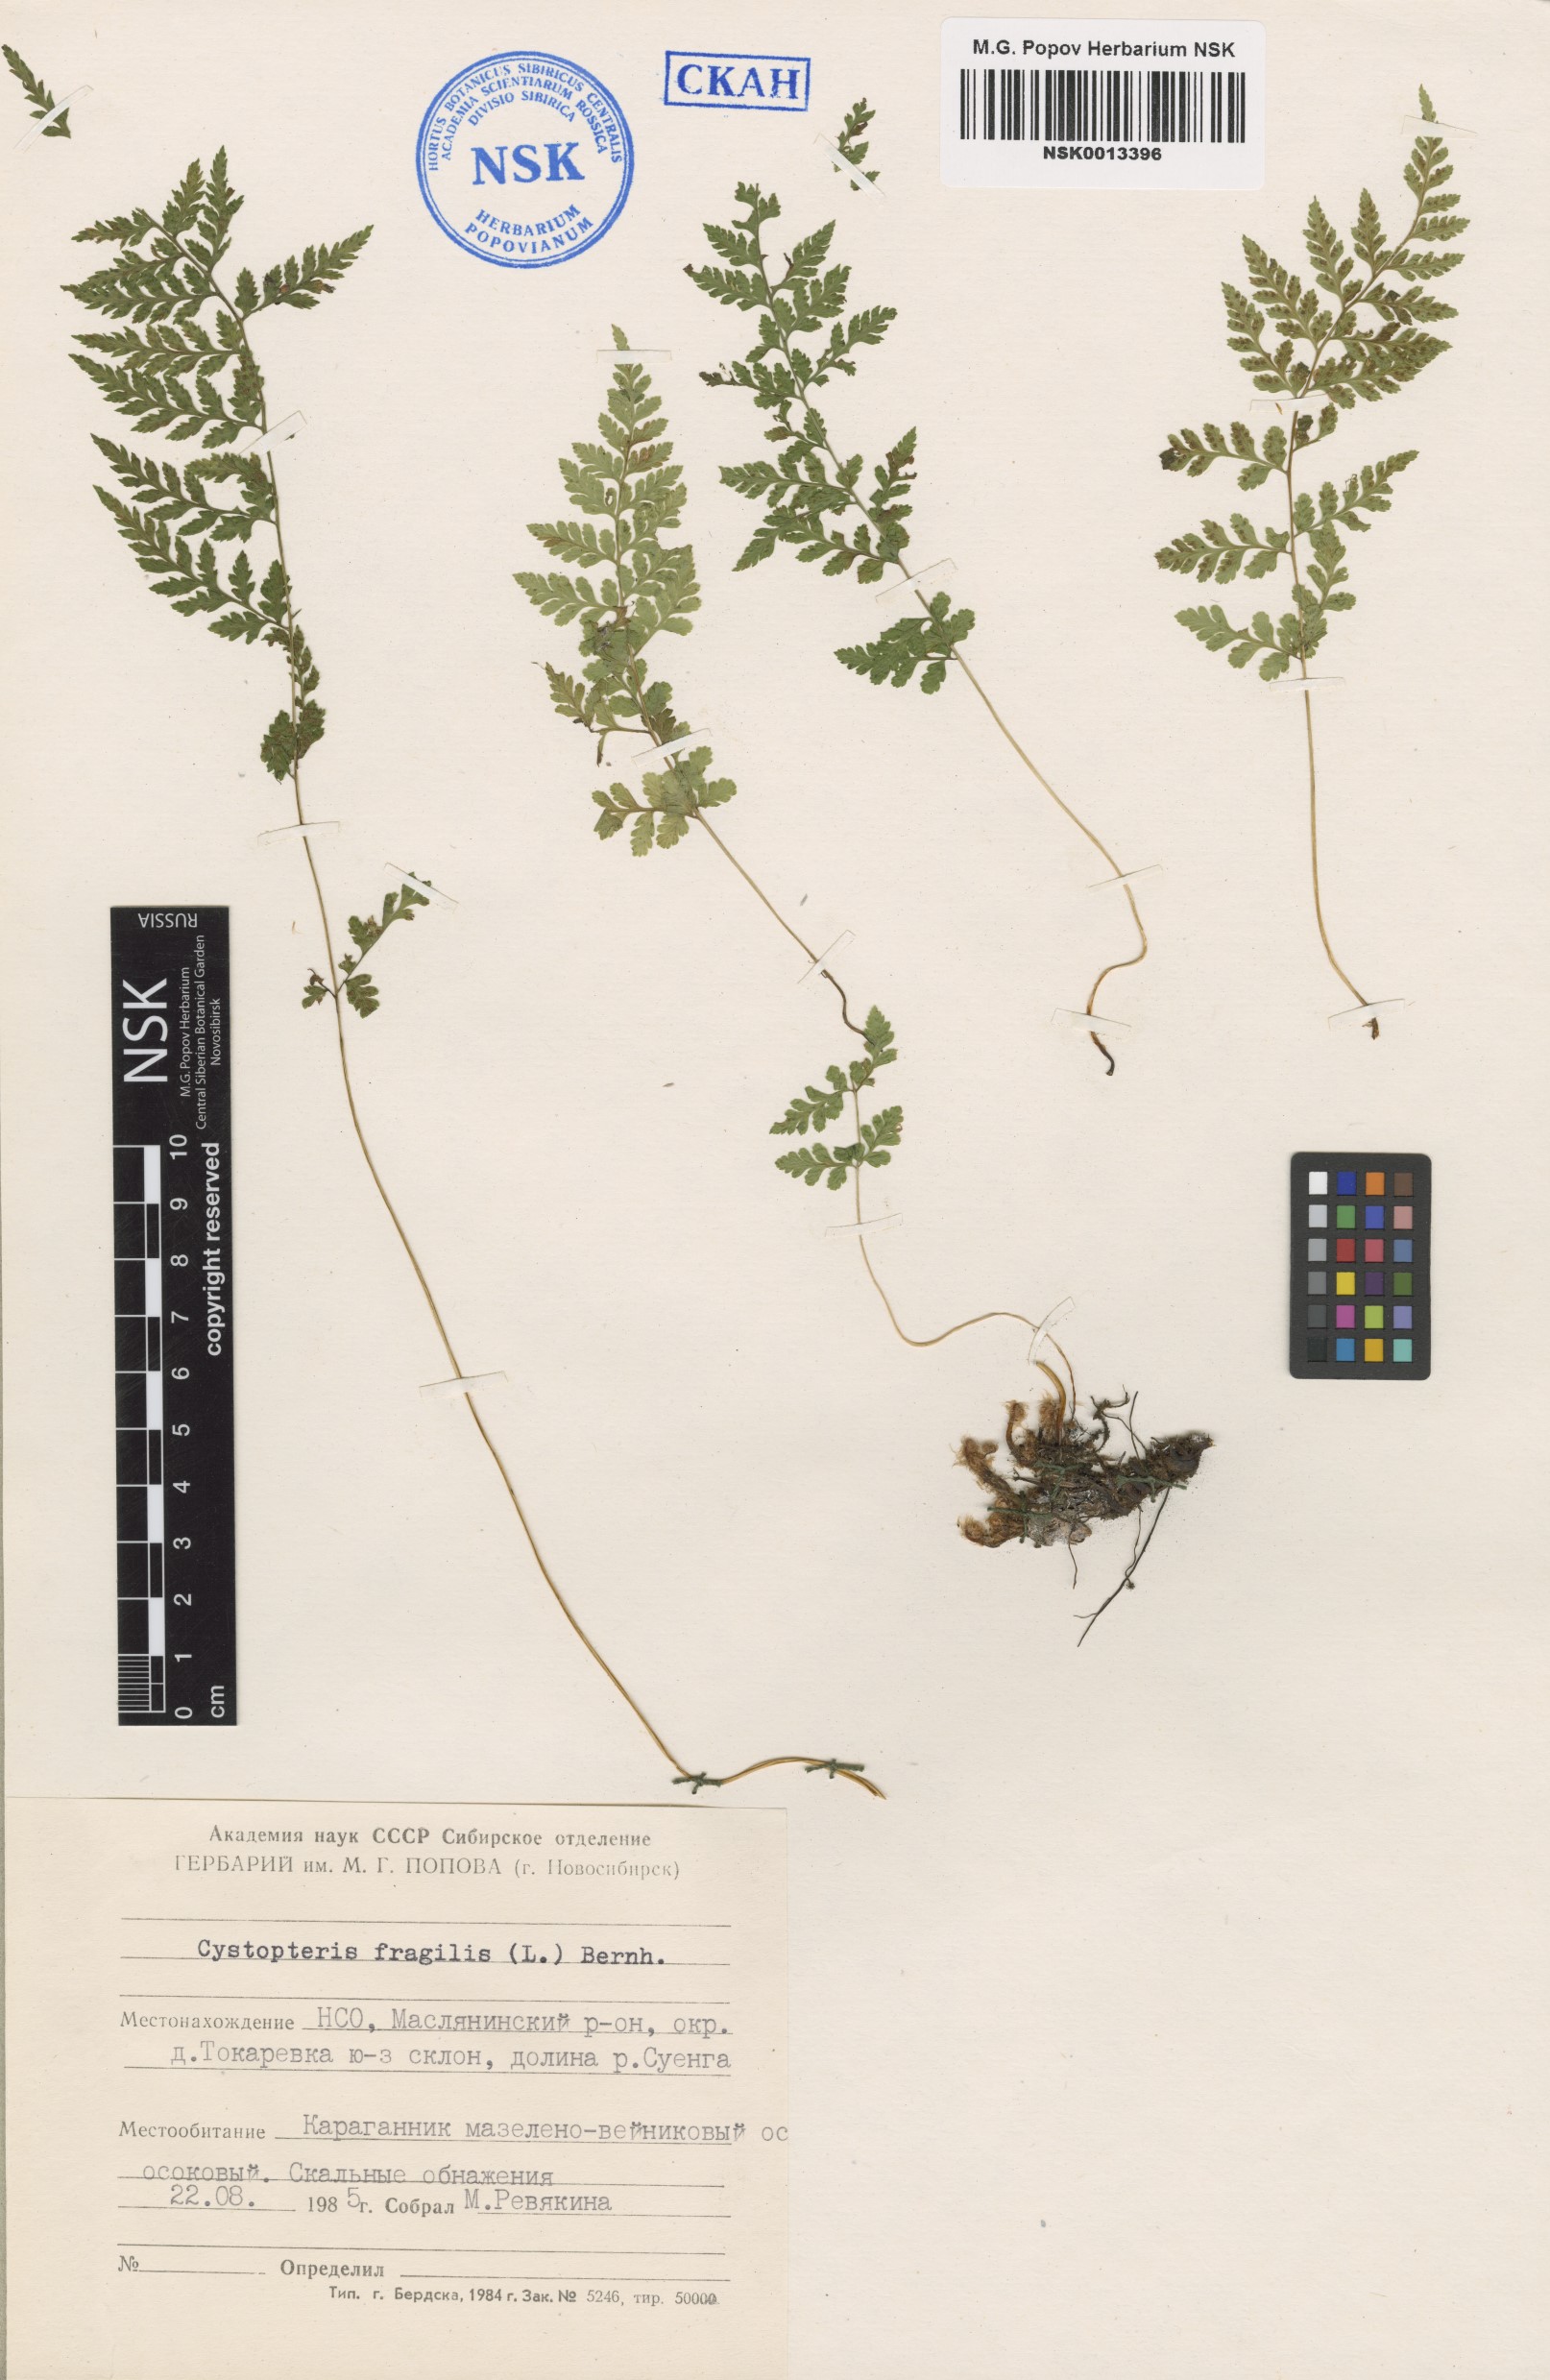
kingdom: Plantae
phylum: Tracheophyta
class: Polypodiopsida
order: Polypodiales
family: Cystopteridaceae
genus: Cystopteris
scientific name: Cystopteris fragilis
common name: Brittle bladder fern
